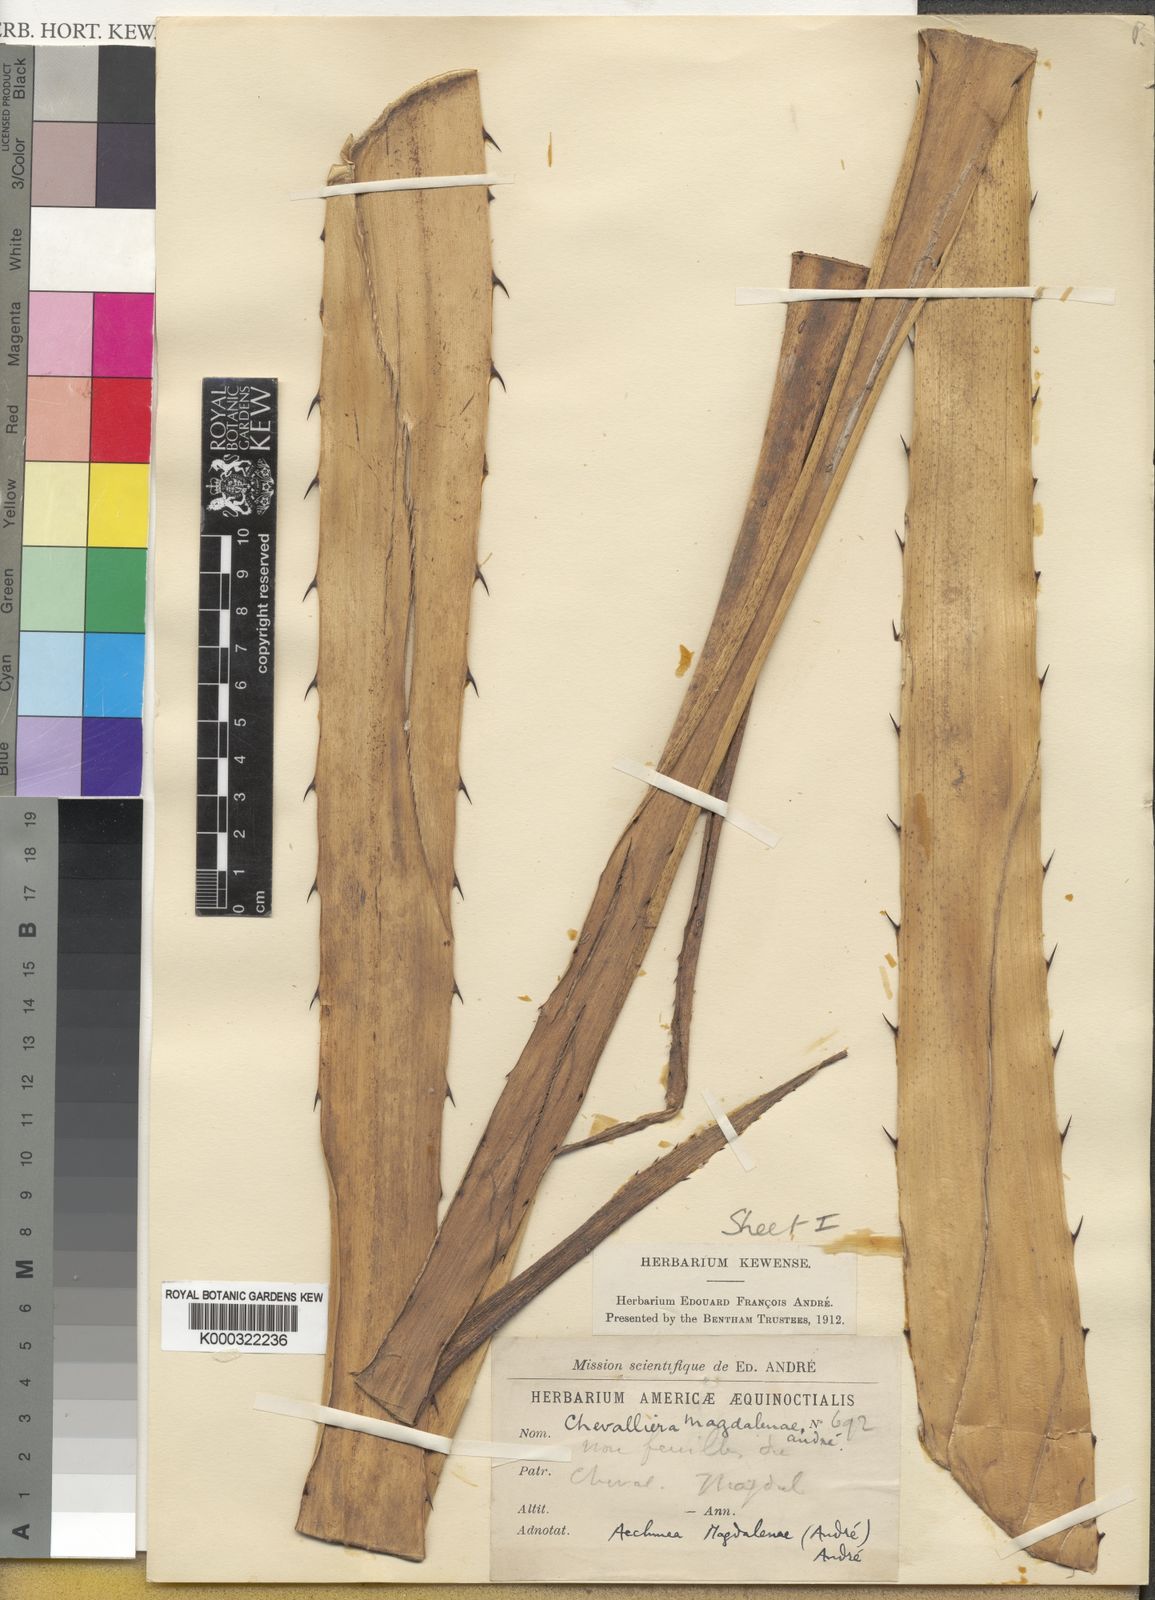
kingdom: Plantae
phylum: Tracheophyta
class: Liliopsida
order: Poales
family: Bromeliaceae
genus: Aechmea
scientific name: Aechmea
